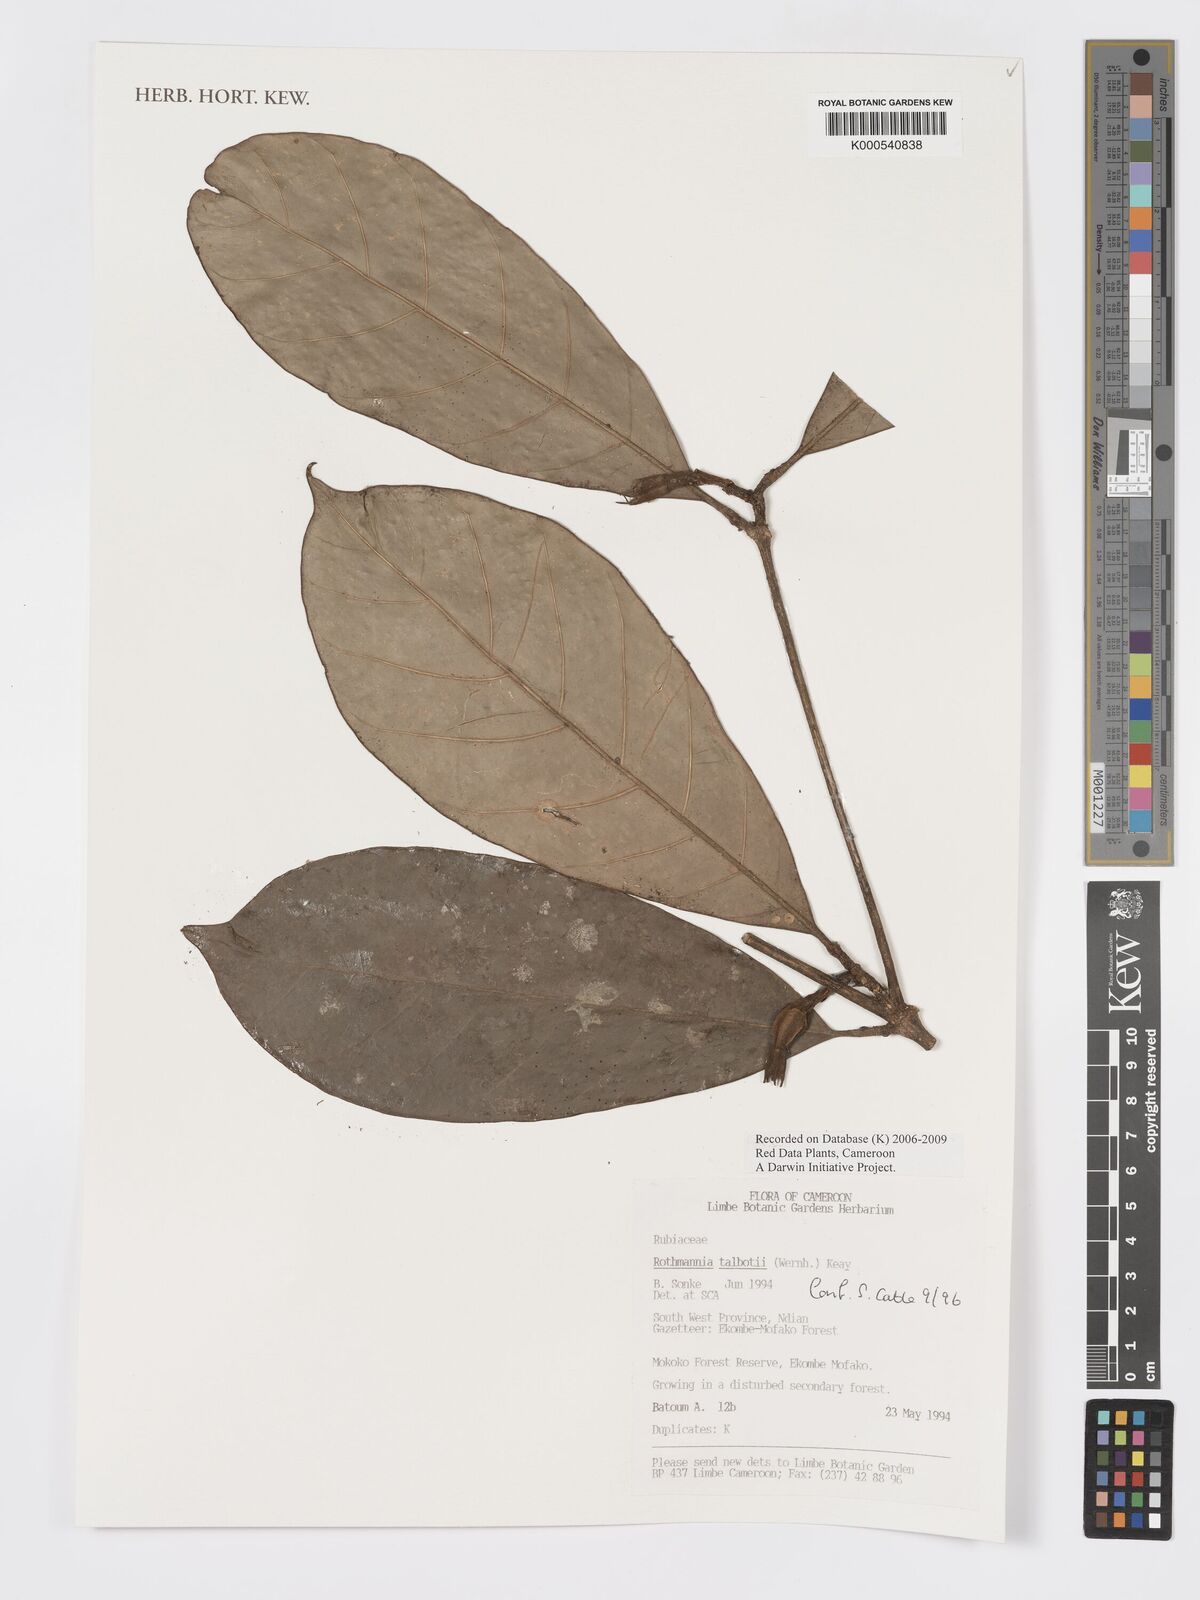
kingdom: Plantae
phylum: Tracheophyta
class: Magnoliopsida
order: Gentianales
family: Rubiaceae
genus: Rothmannia
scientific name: Rothmannia talbotii
